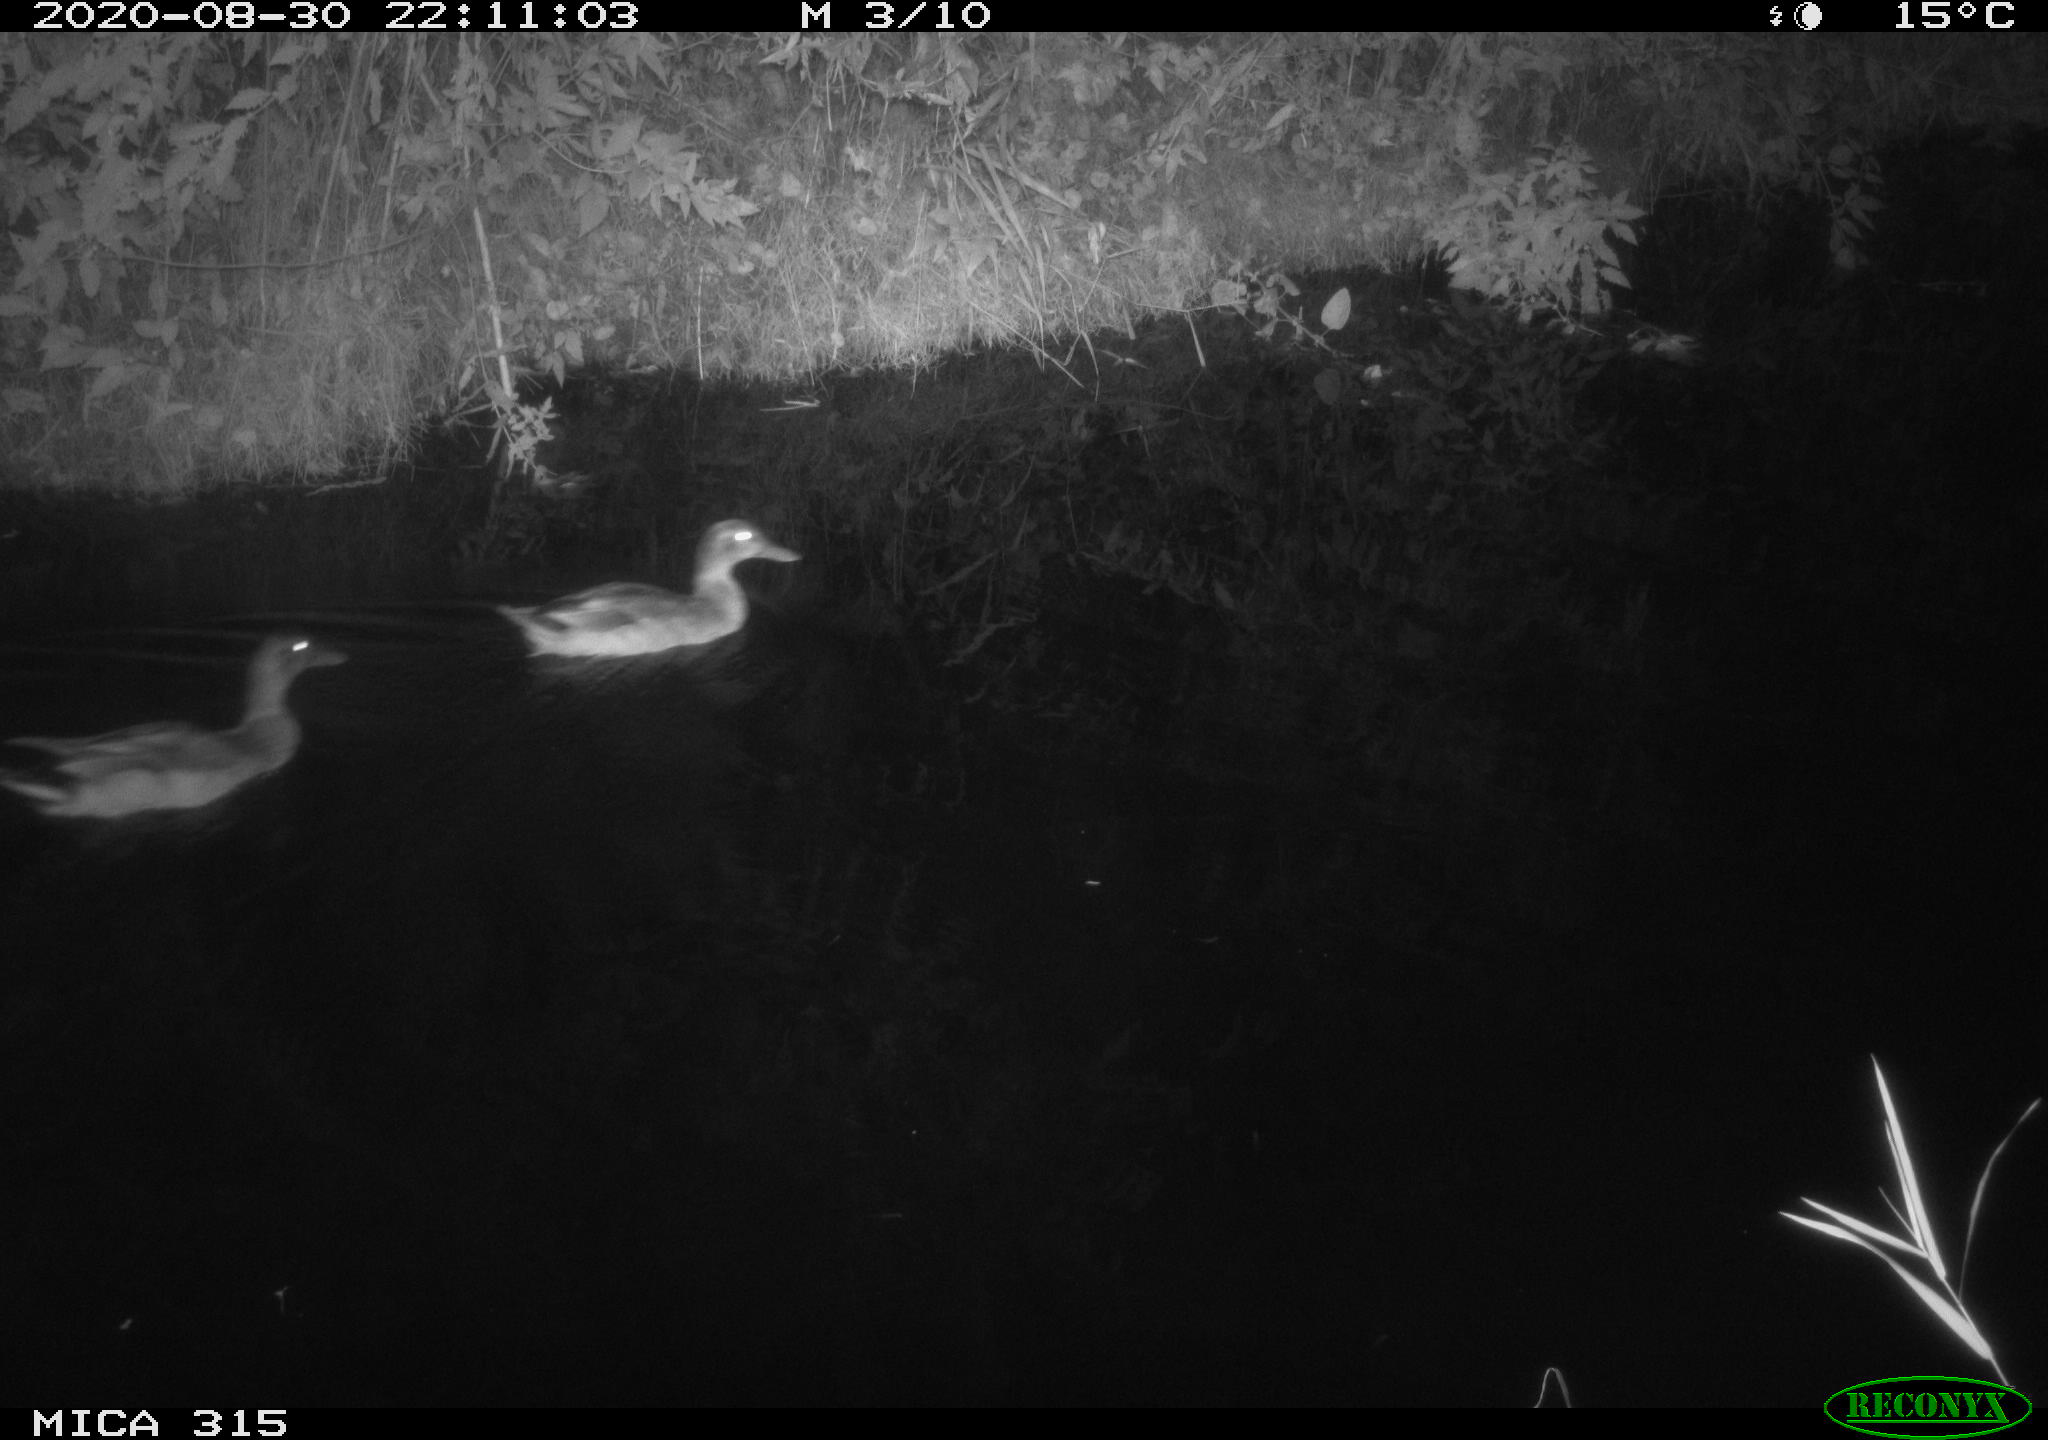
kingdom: Animalia
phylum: Chordata
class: Aves
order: Anseriformes
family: Anatidae
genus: Anas
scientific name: Anas platyrhynchos
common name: Mallard
